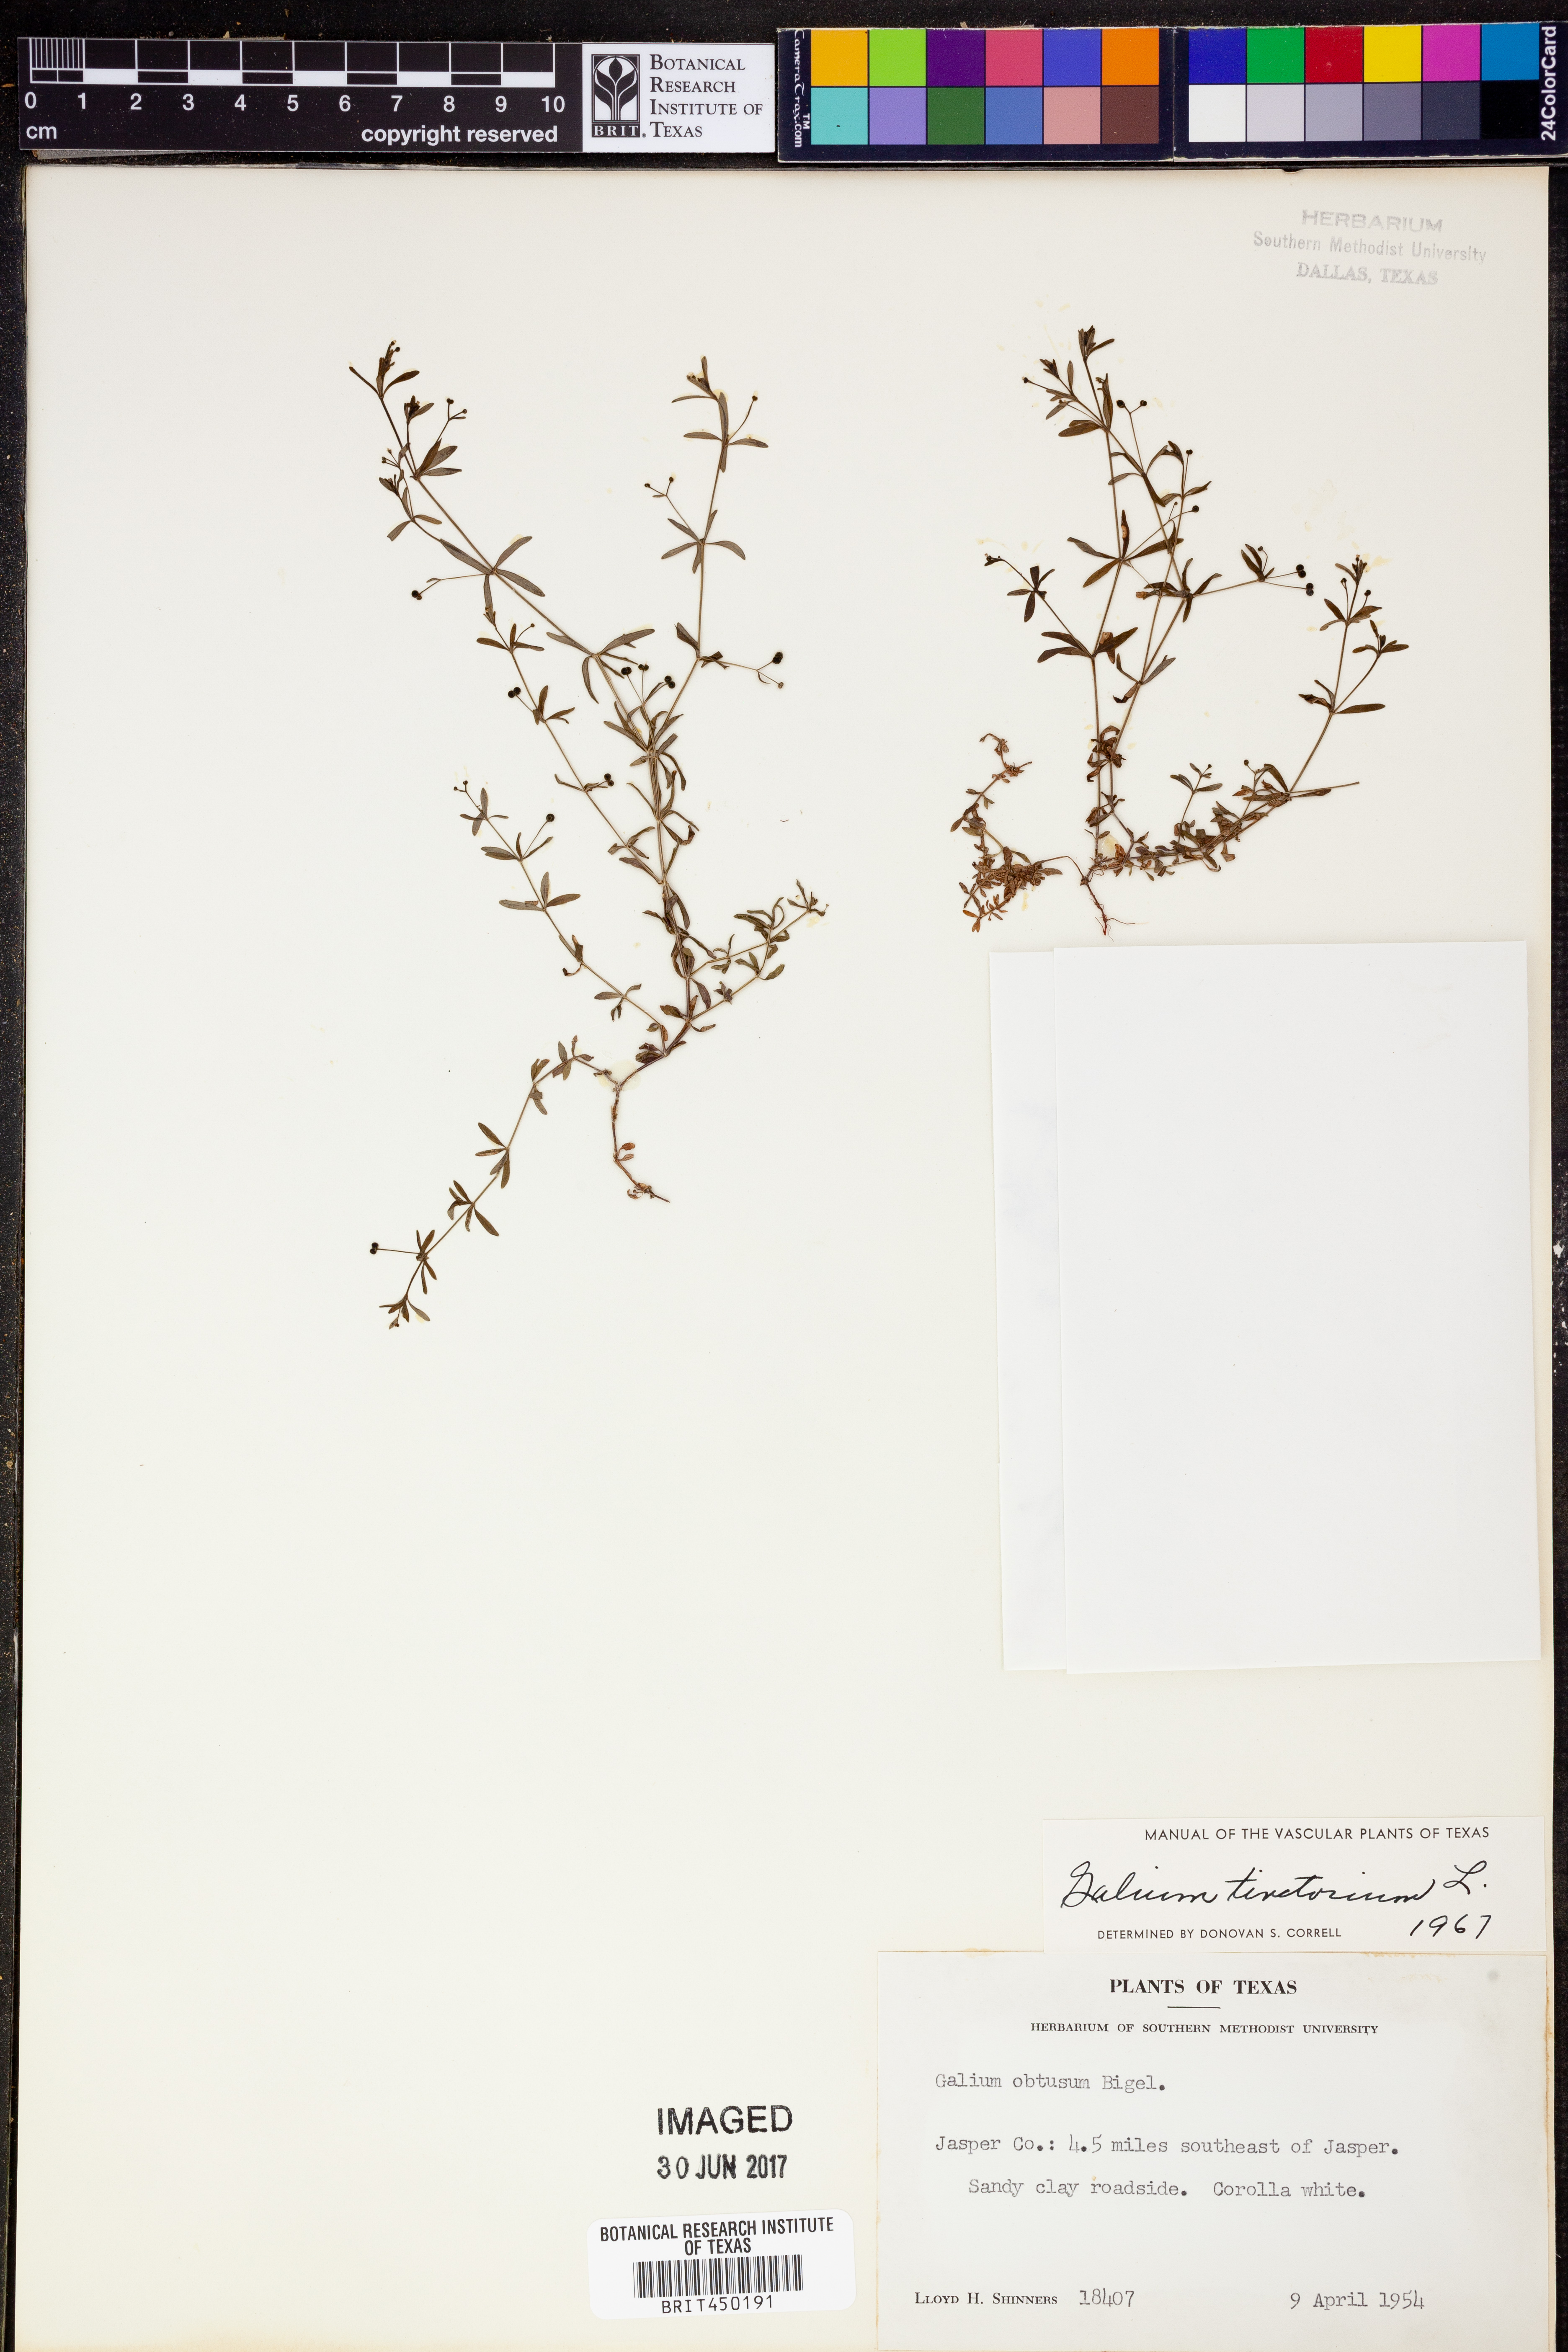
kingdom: Plantae
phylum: Tracheophyta
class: Magnoliopsida
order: Gentianales
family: Rubiaceae
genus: Asperula
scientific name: Asperula tinctoria
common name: Dyer's woodruff
